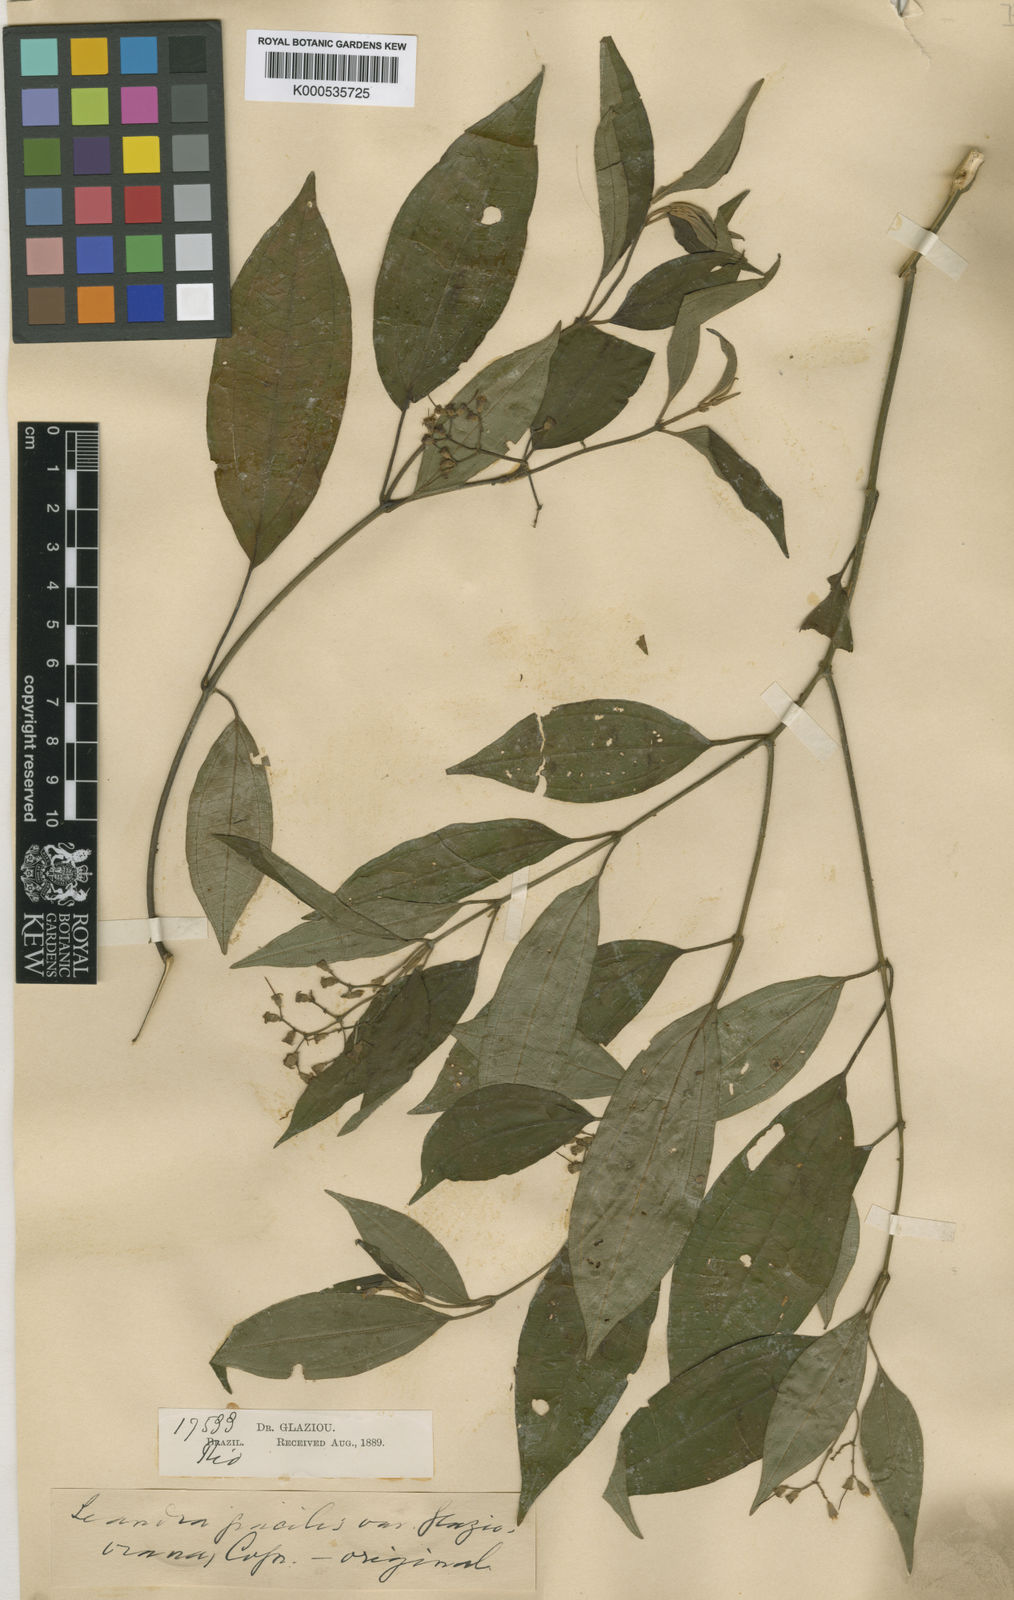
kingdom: Plantae
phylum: Tracheophyta
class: Magnoliopsida
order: Myrtales
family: Melastomataceae
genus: Miconia
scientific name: Miconia altomacaensis
